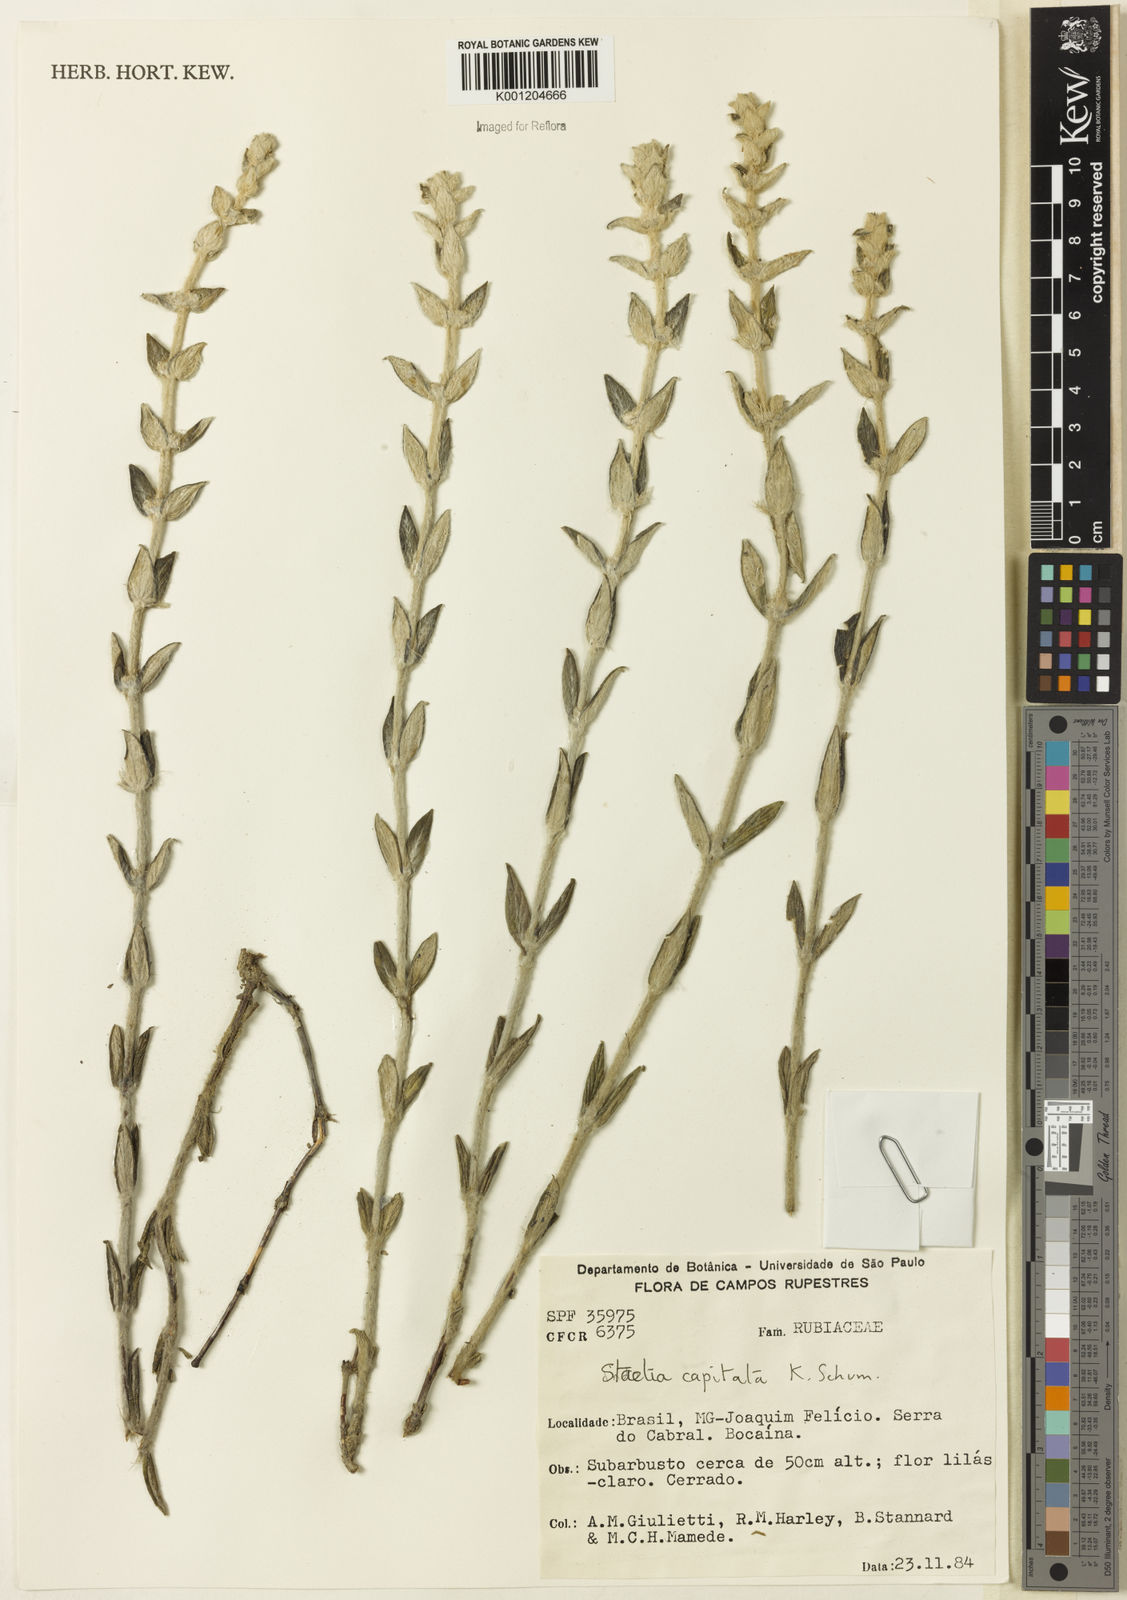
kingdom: Plantae
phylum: Tracheophyta
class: Magnoliopsida
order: Gentianales
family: Rubiaceae
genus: Planaltina
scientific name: Planaltina capitata
